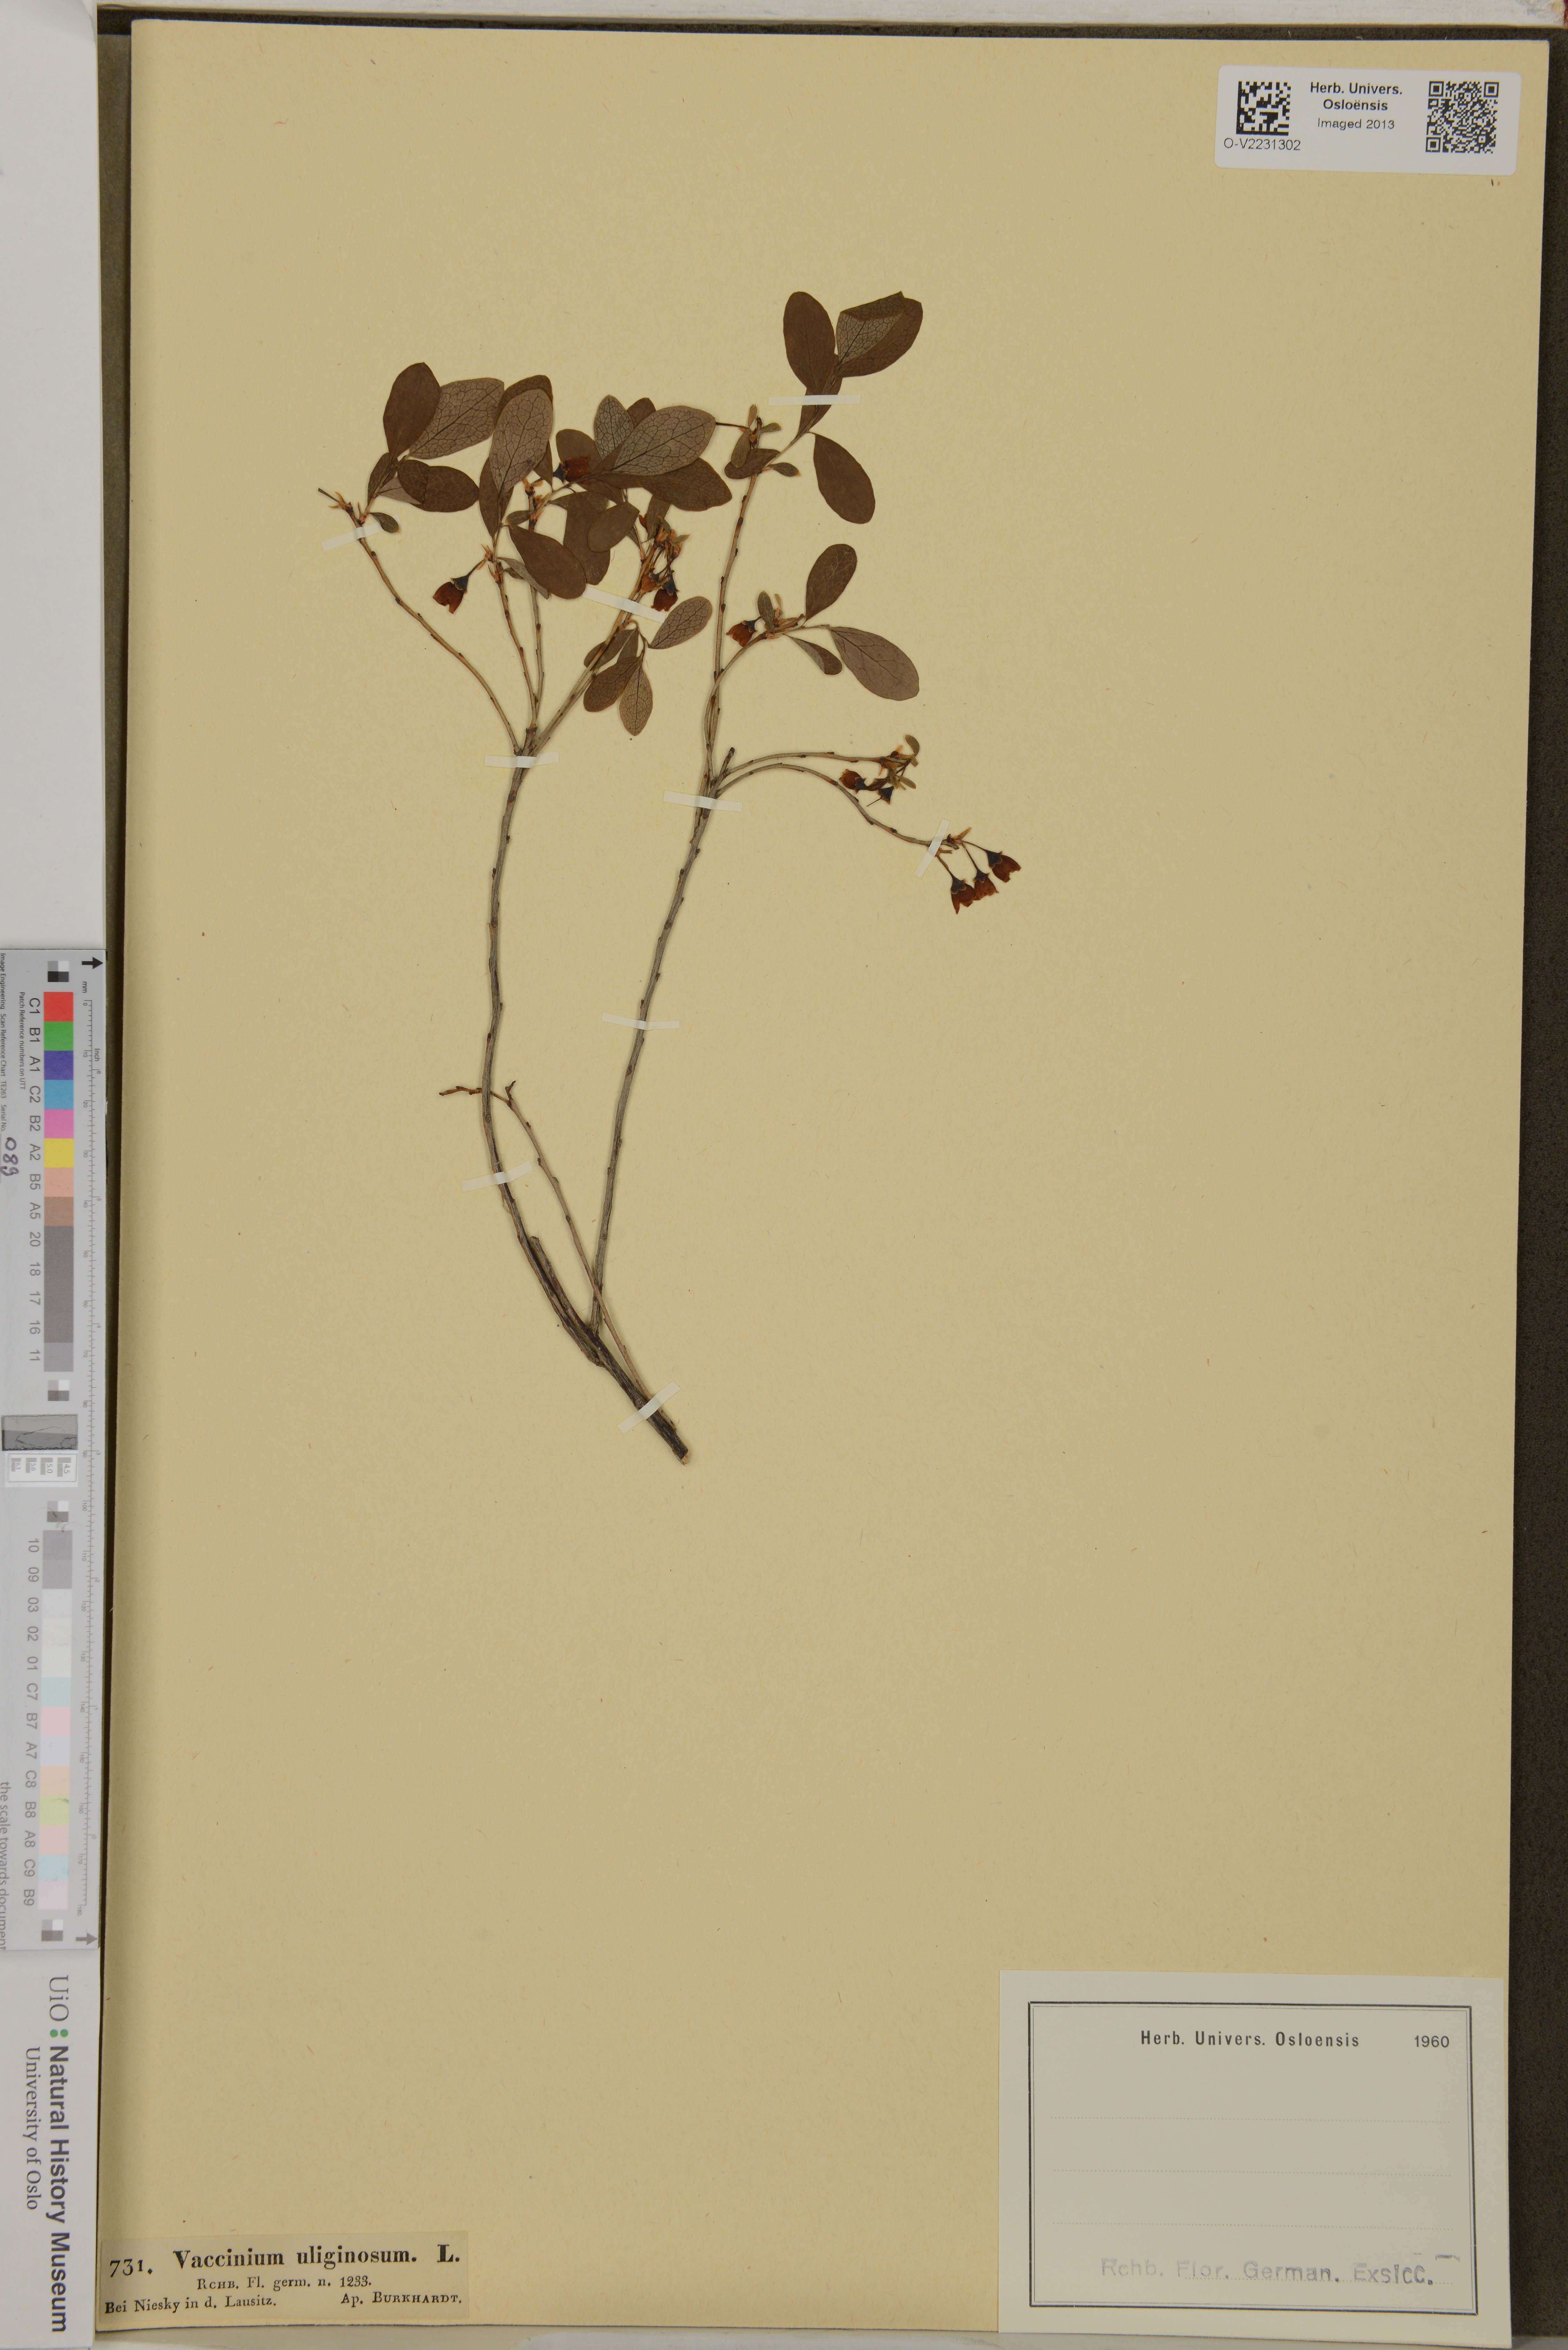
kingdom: Plantae
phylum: Tracheophyta
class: Magnoliopsida
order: Ericales
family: Ericaceae
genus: Vaccinium
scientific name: Vaccinium uliginosum
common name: Bog bilberry
